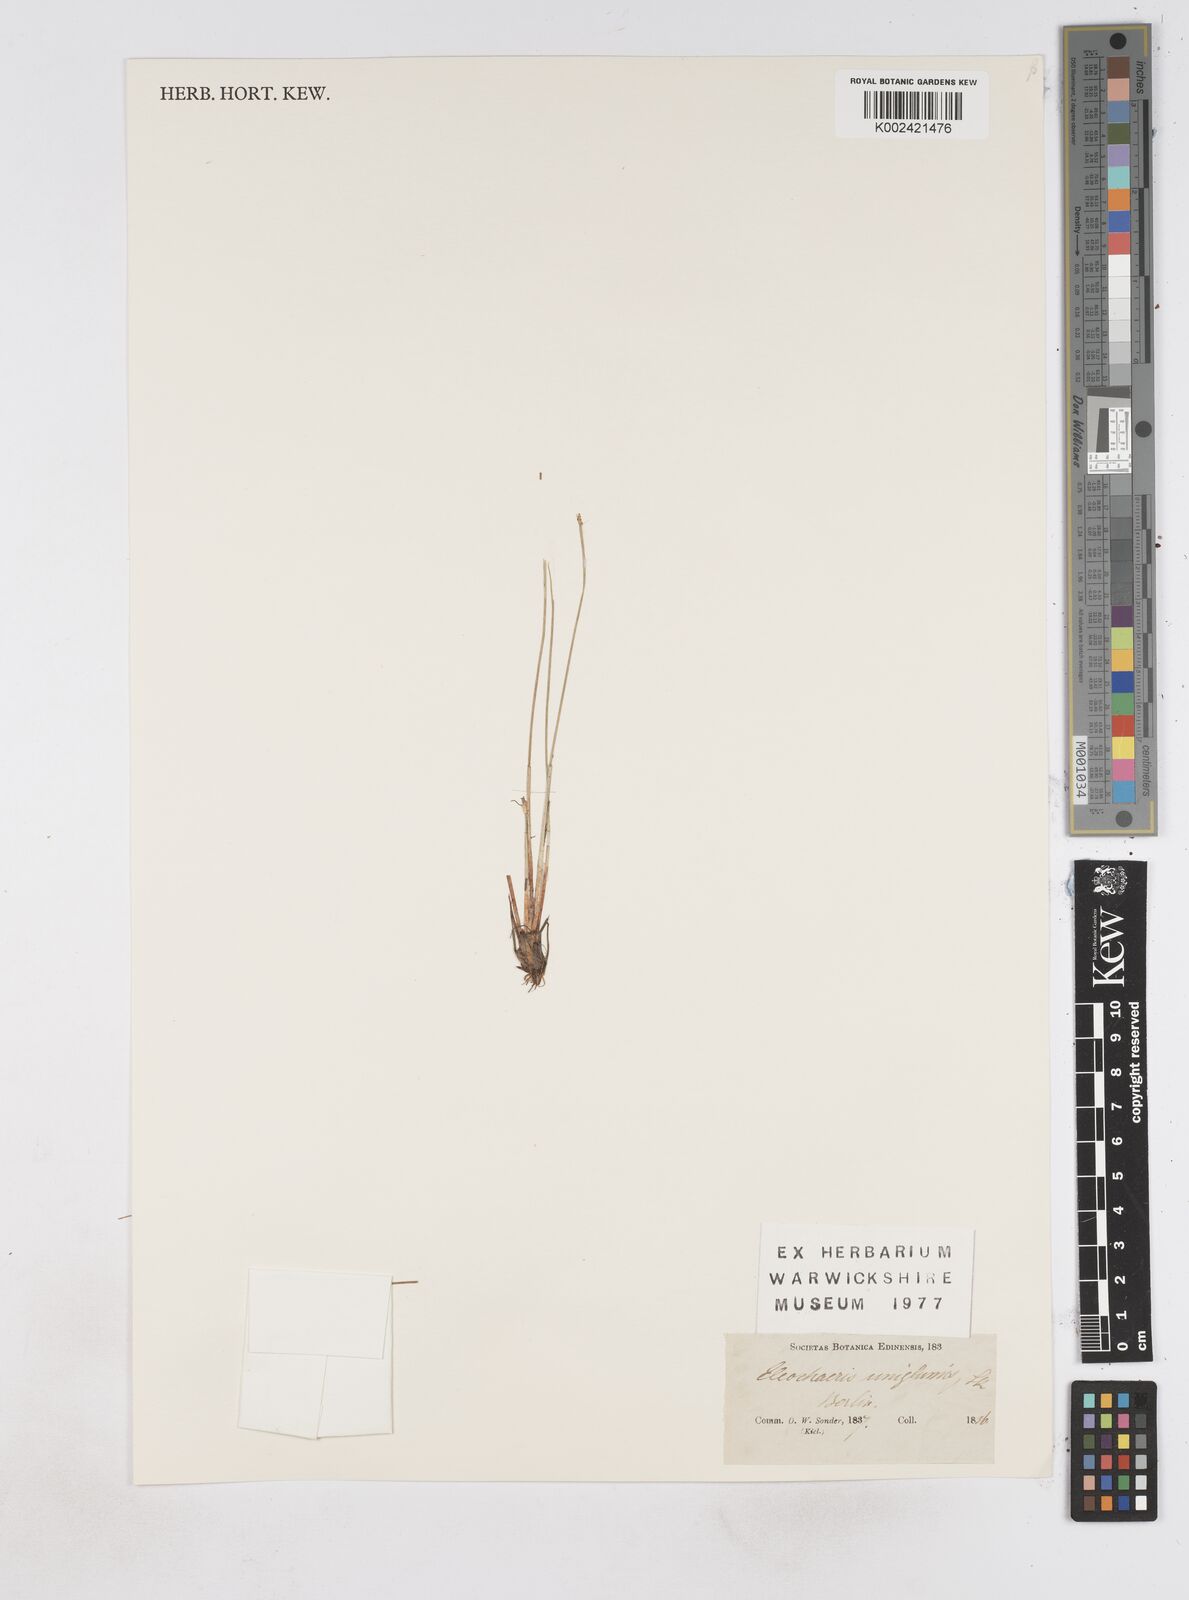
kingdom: Plantae
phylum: Tracheophyta
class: Liliopsida
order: Poales
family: Cyperaceae
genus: Eleocharis
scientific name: Eleocharis uniglumis
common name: Slender spike-rush
